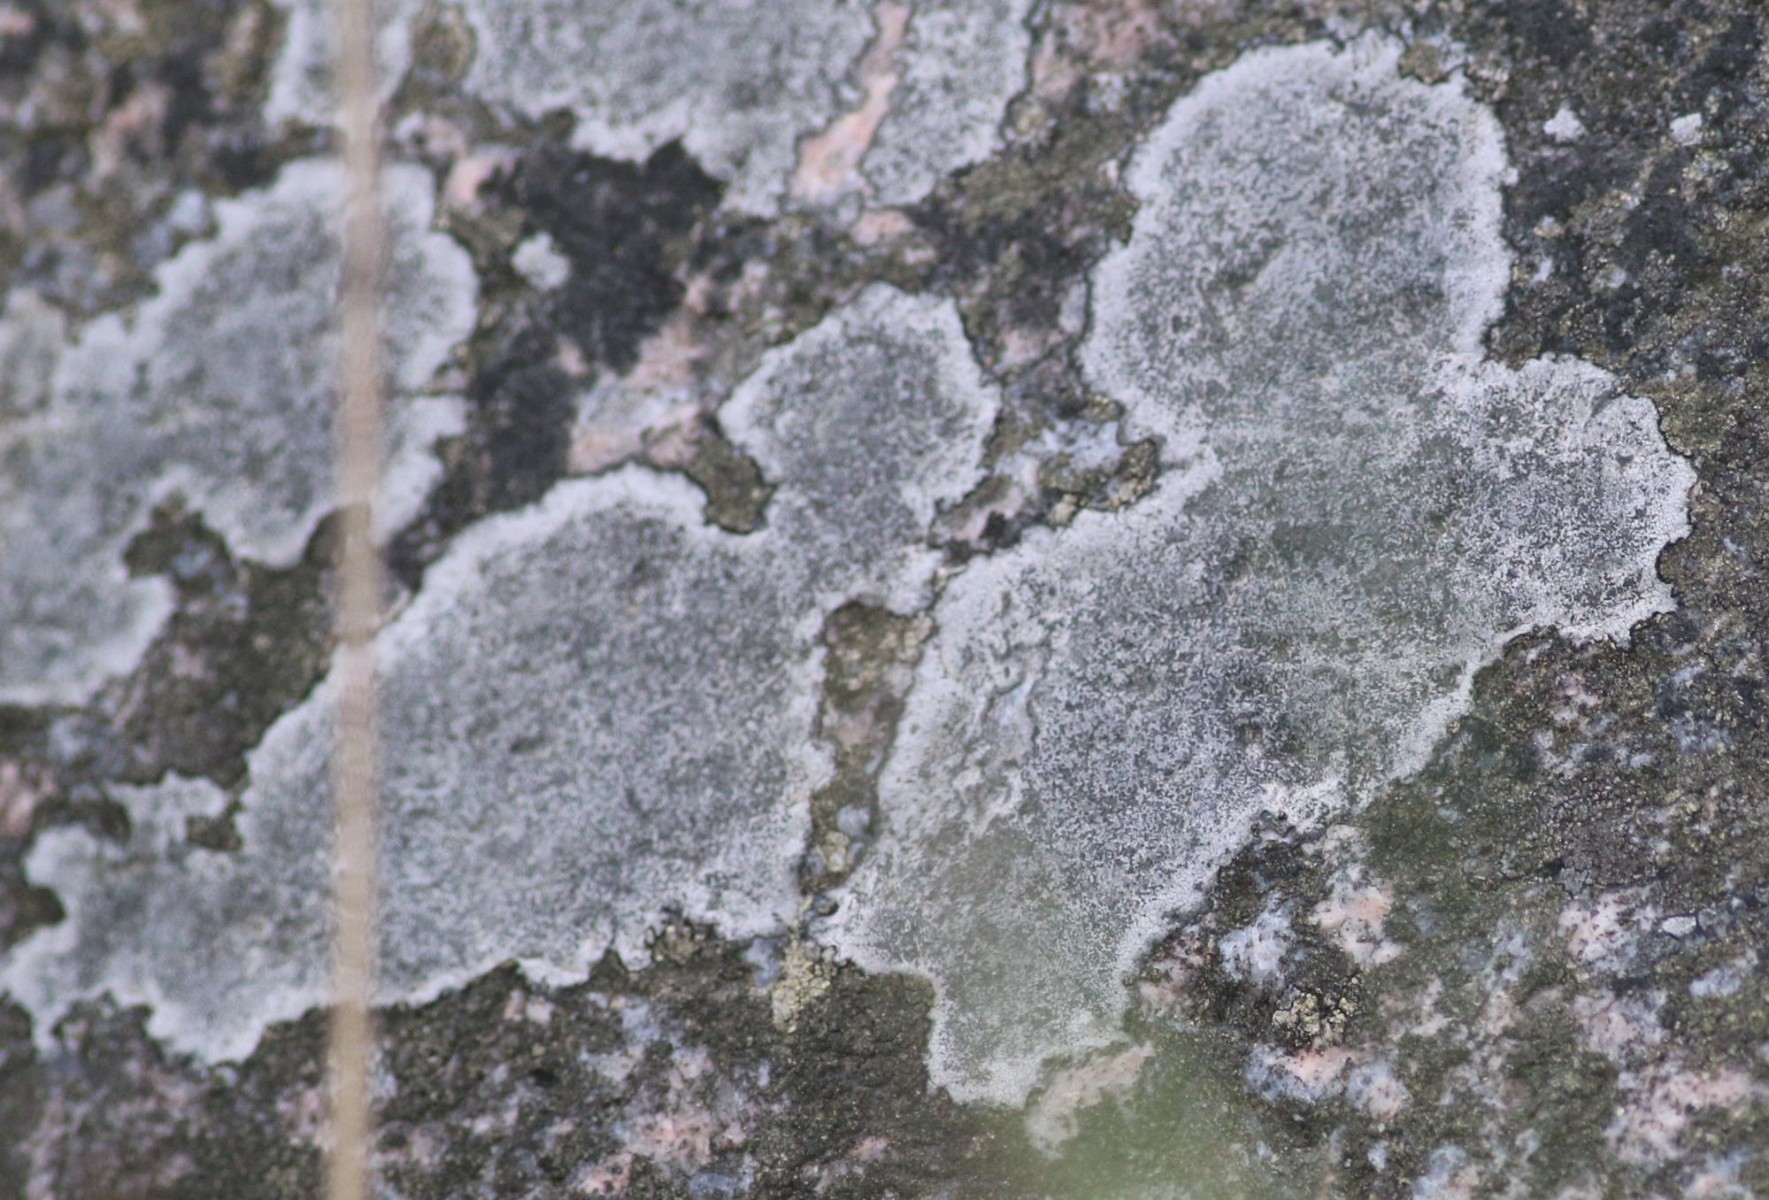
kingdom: Fungi
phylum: Ascomycota
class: Lecanoromycetes
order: Lecanorales
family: Parmeliaceae
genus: Lichen
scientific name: Lichen
